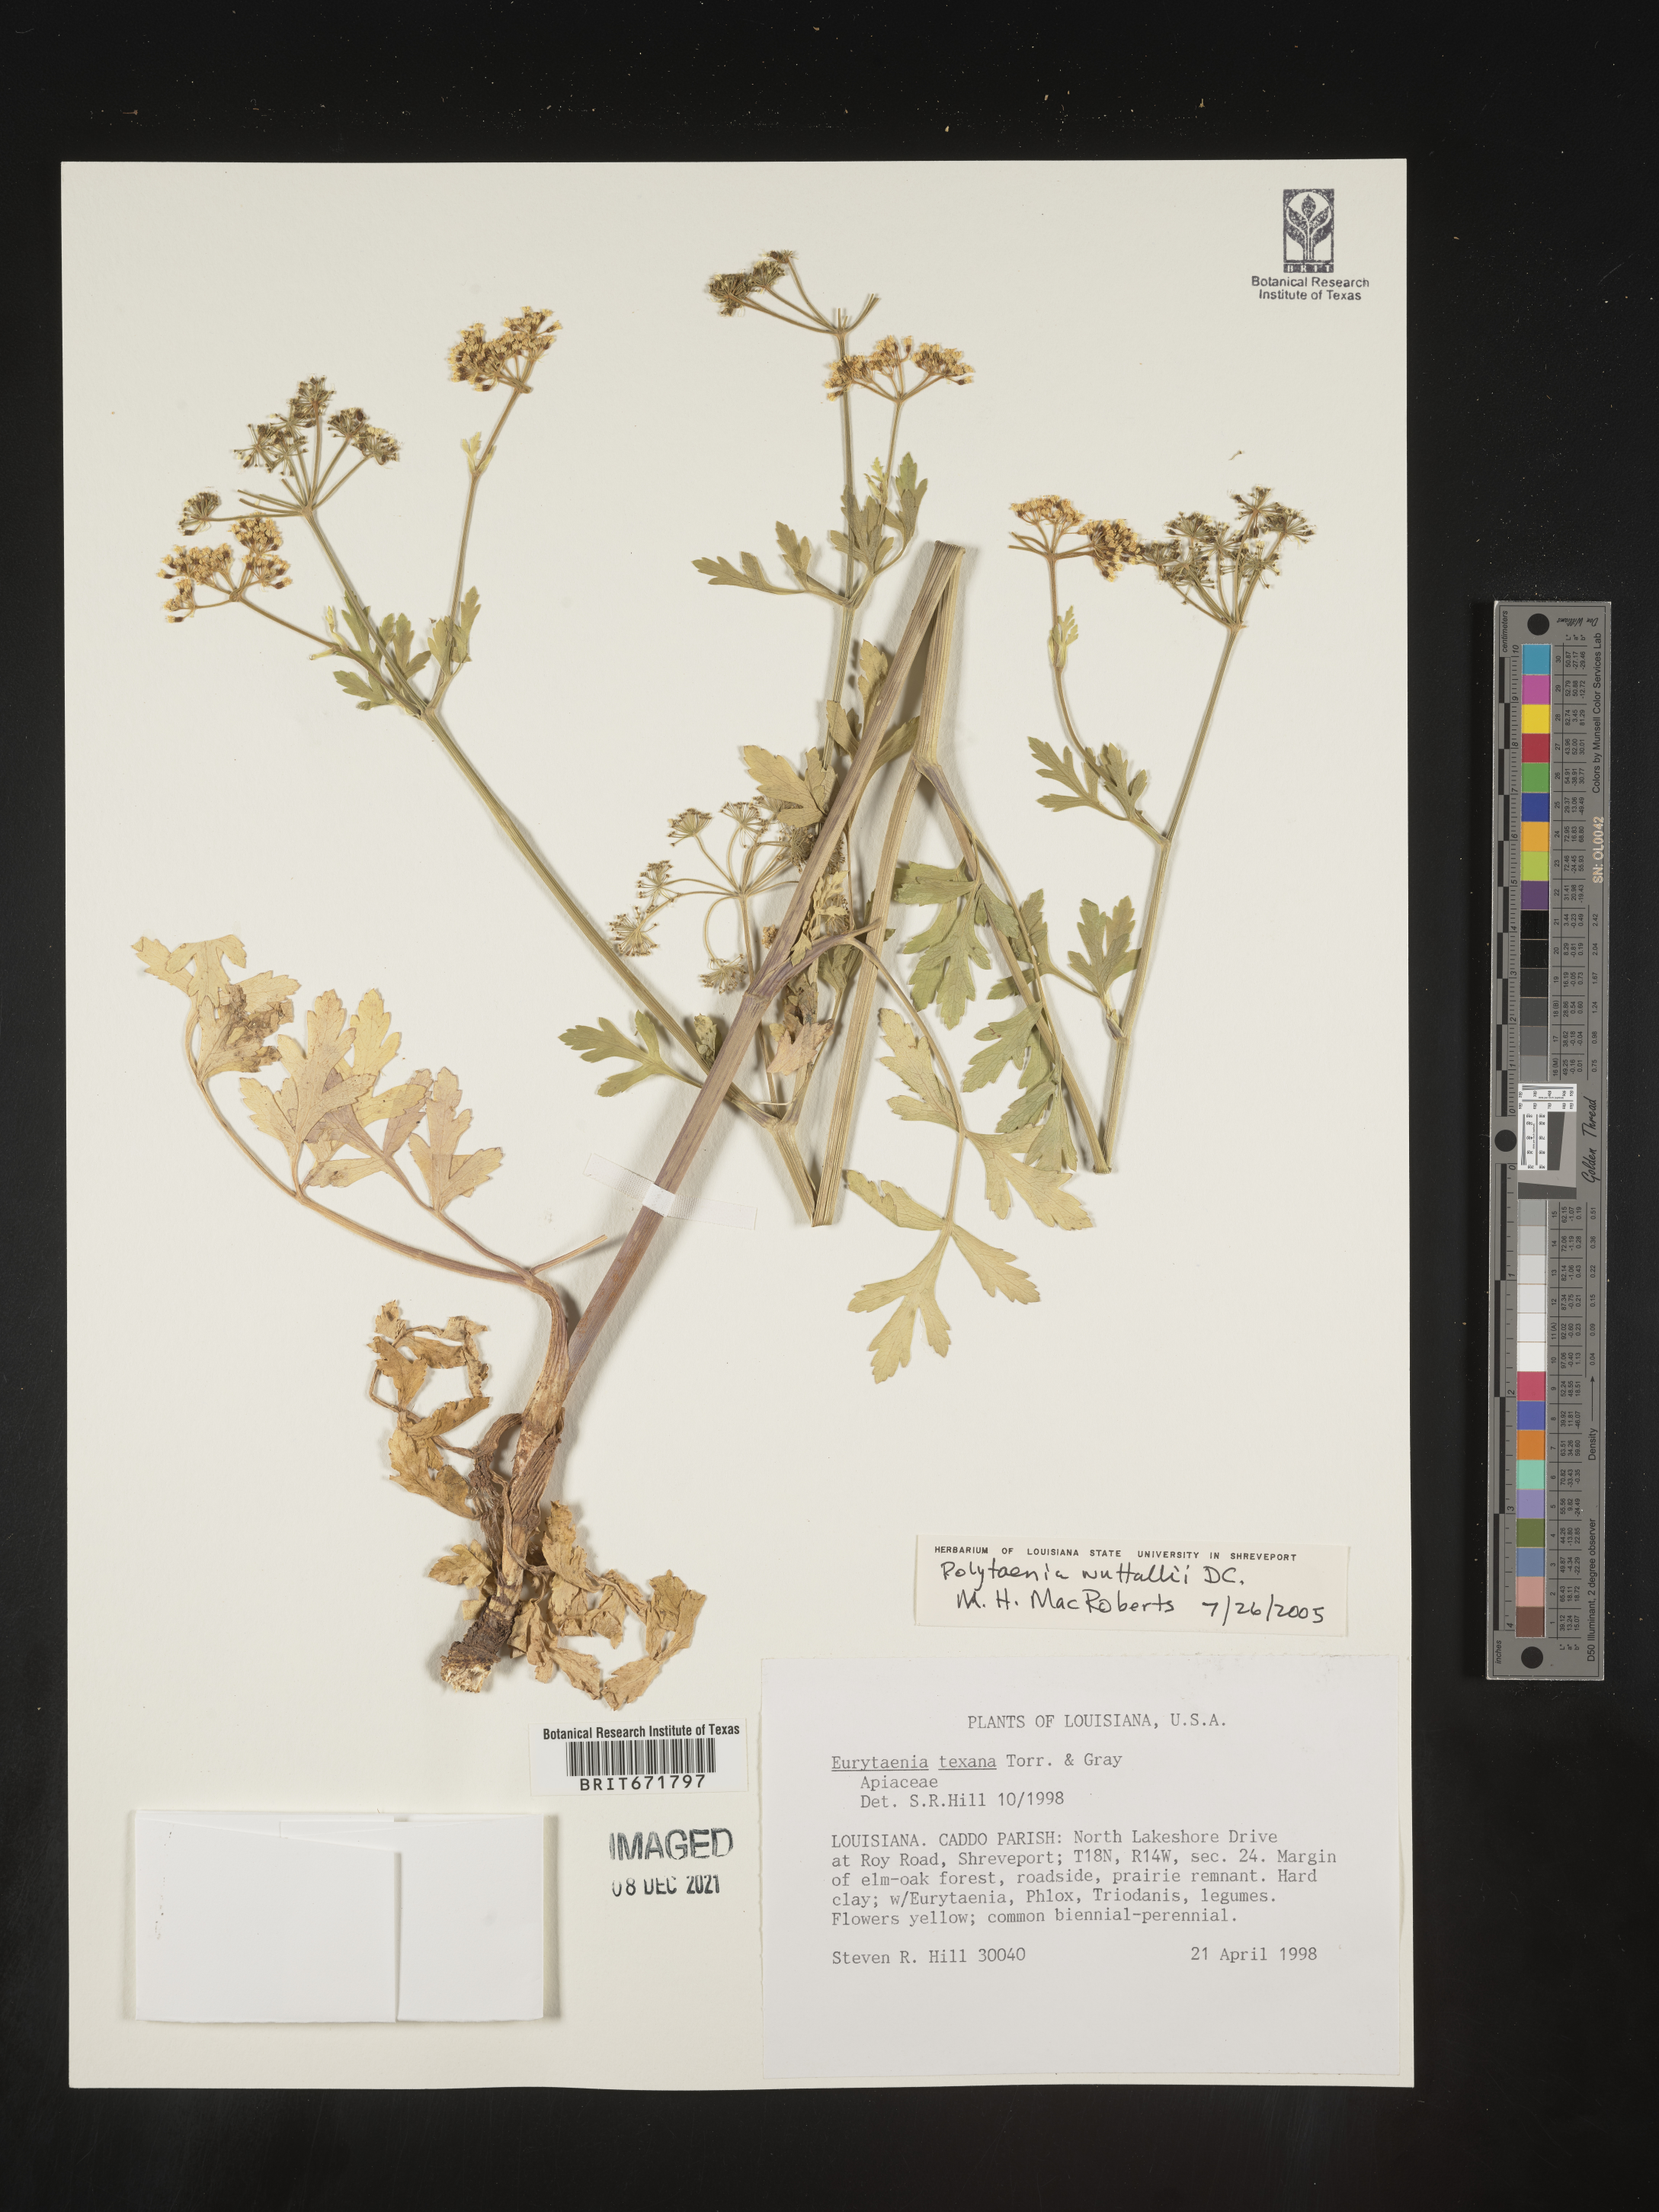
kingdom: Plantae
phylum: Tracheophyta
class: Magnoliopsida
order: Apiales
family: Apiaceae
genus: Polytaenia
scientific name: Polytaenia nuttallii
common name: Prairie-parsley
